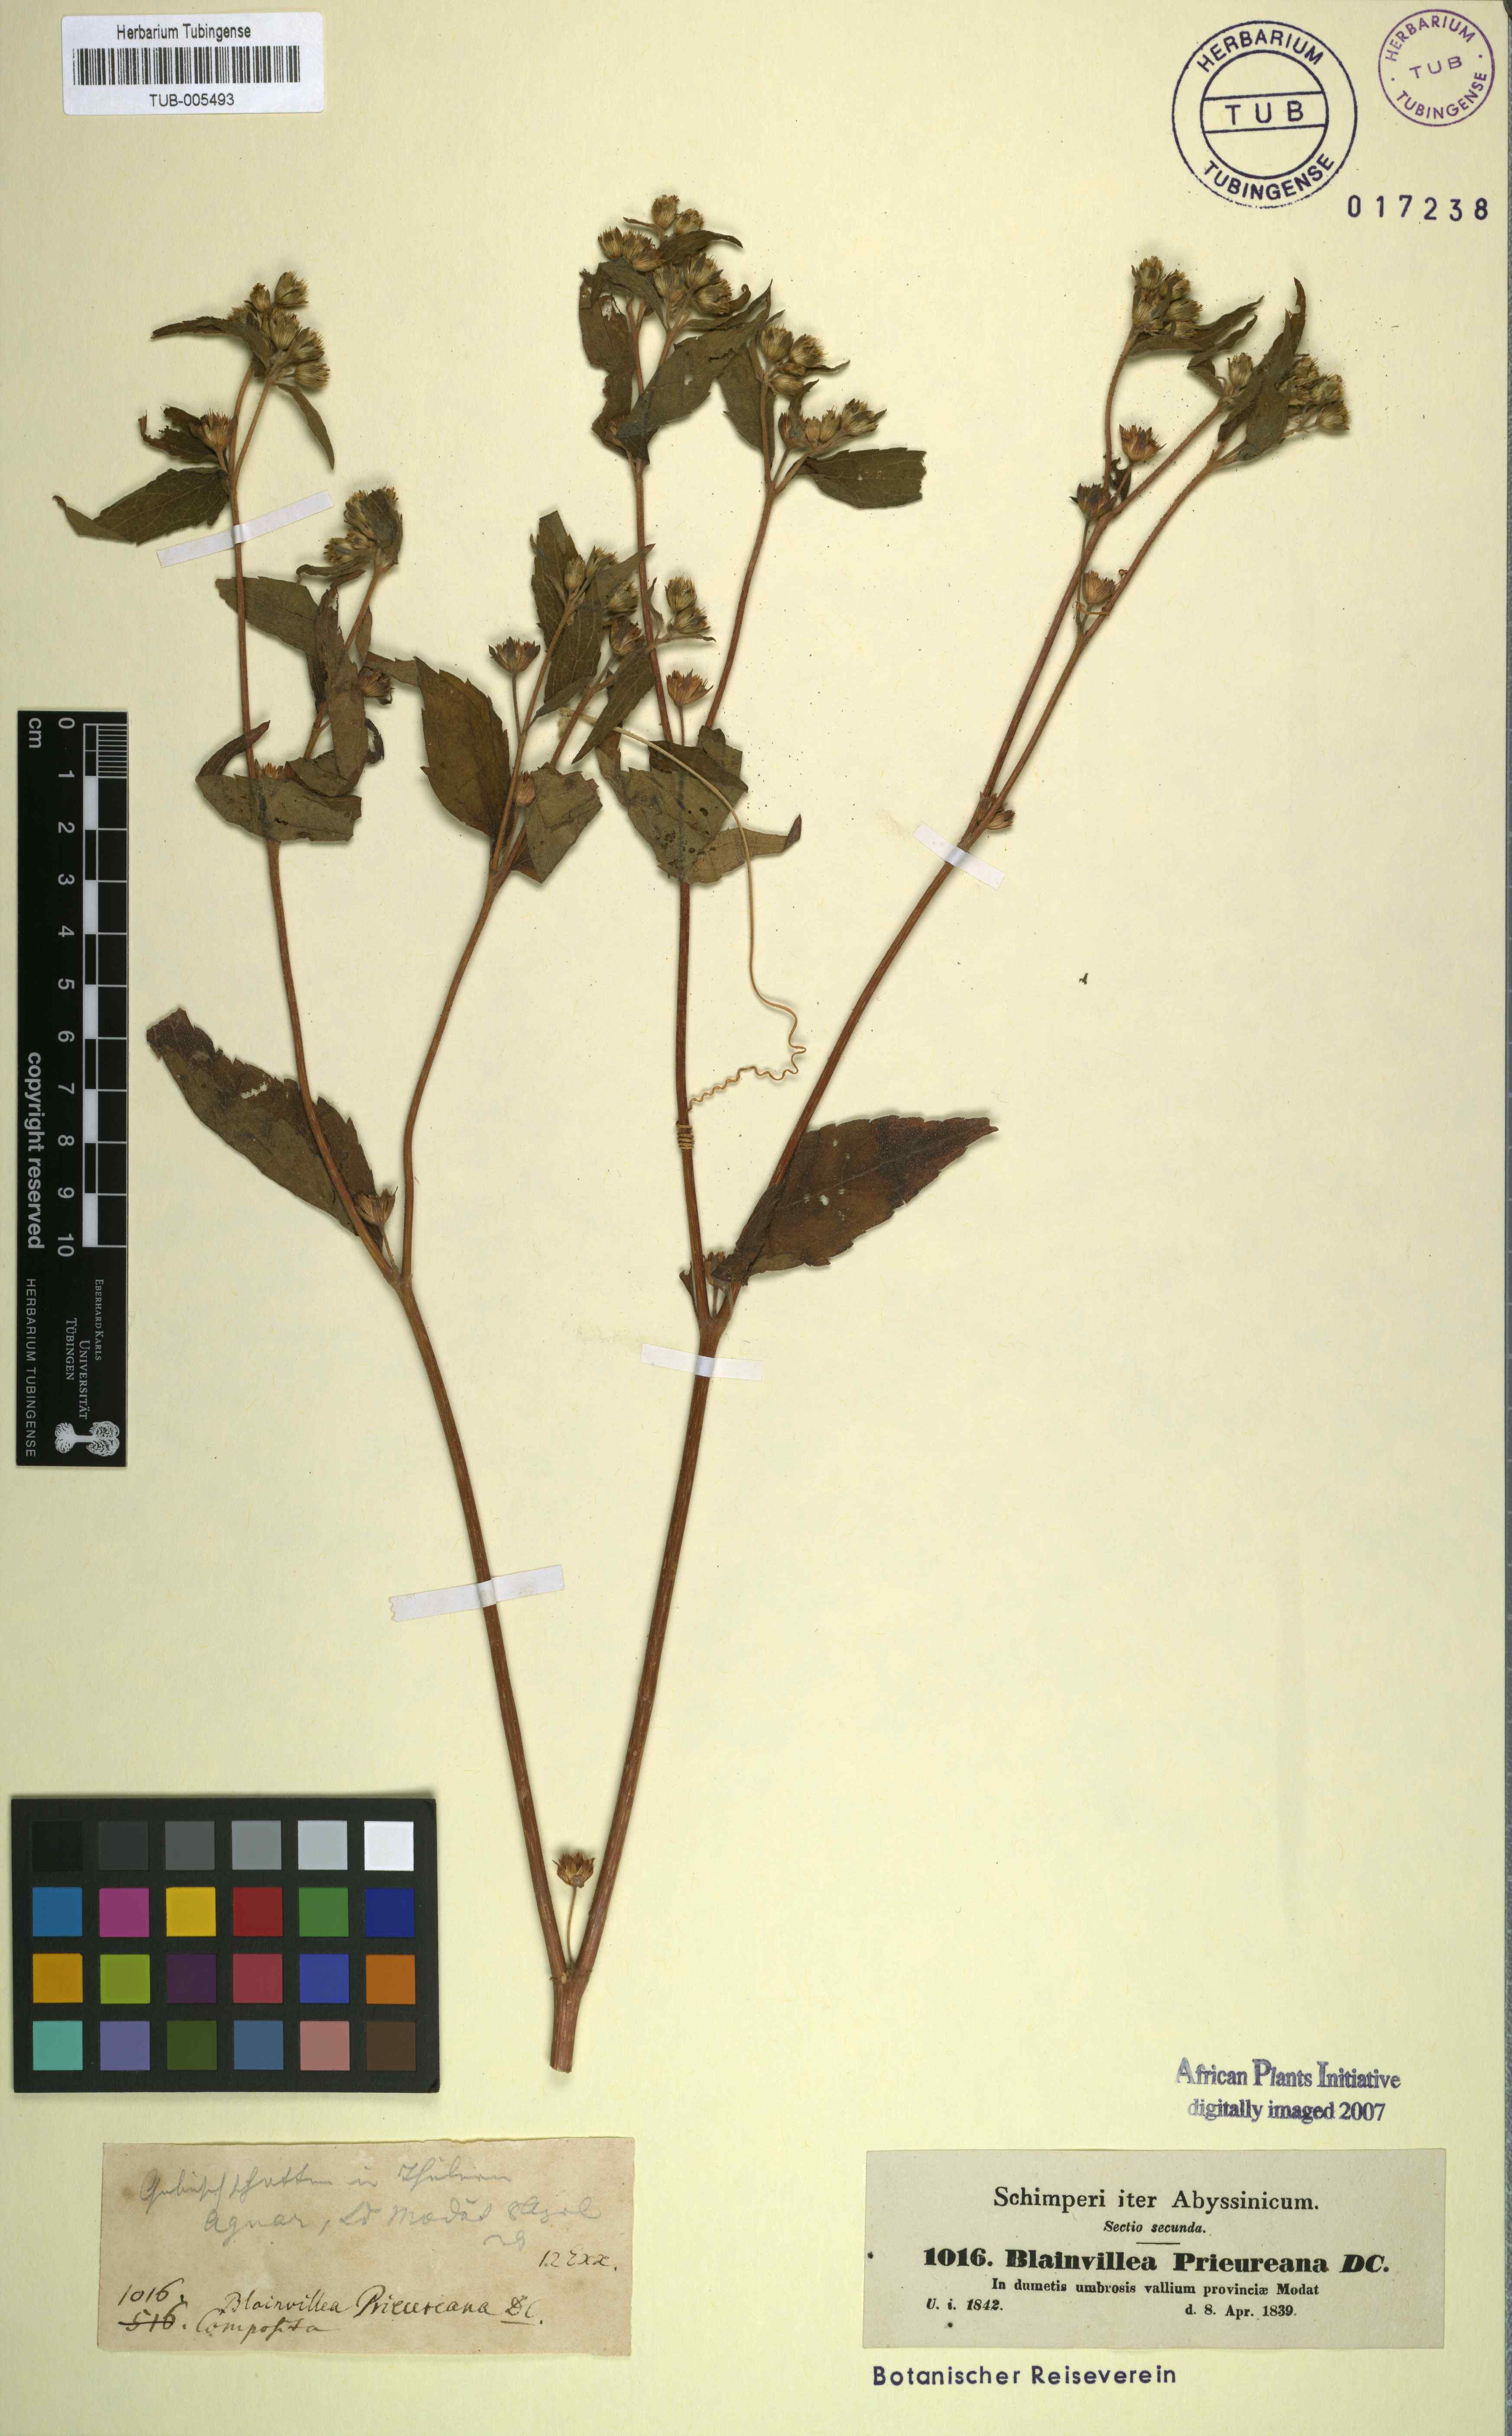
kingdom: Plantae
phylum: Tracheophyta
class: Magnoliopsida
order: Asterales
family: Asteraceae
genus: Aspilia
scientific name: Aspilia helianthoides
